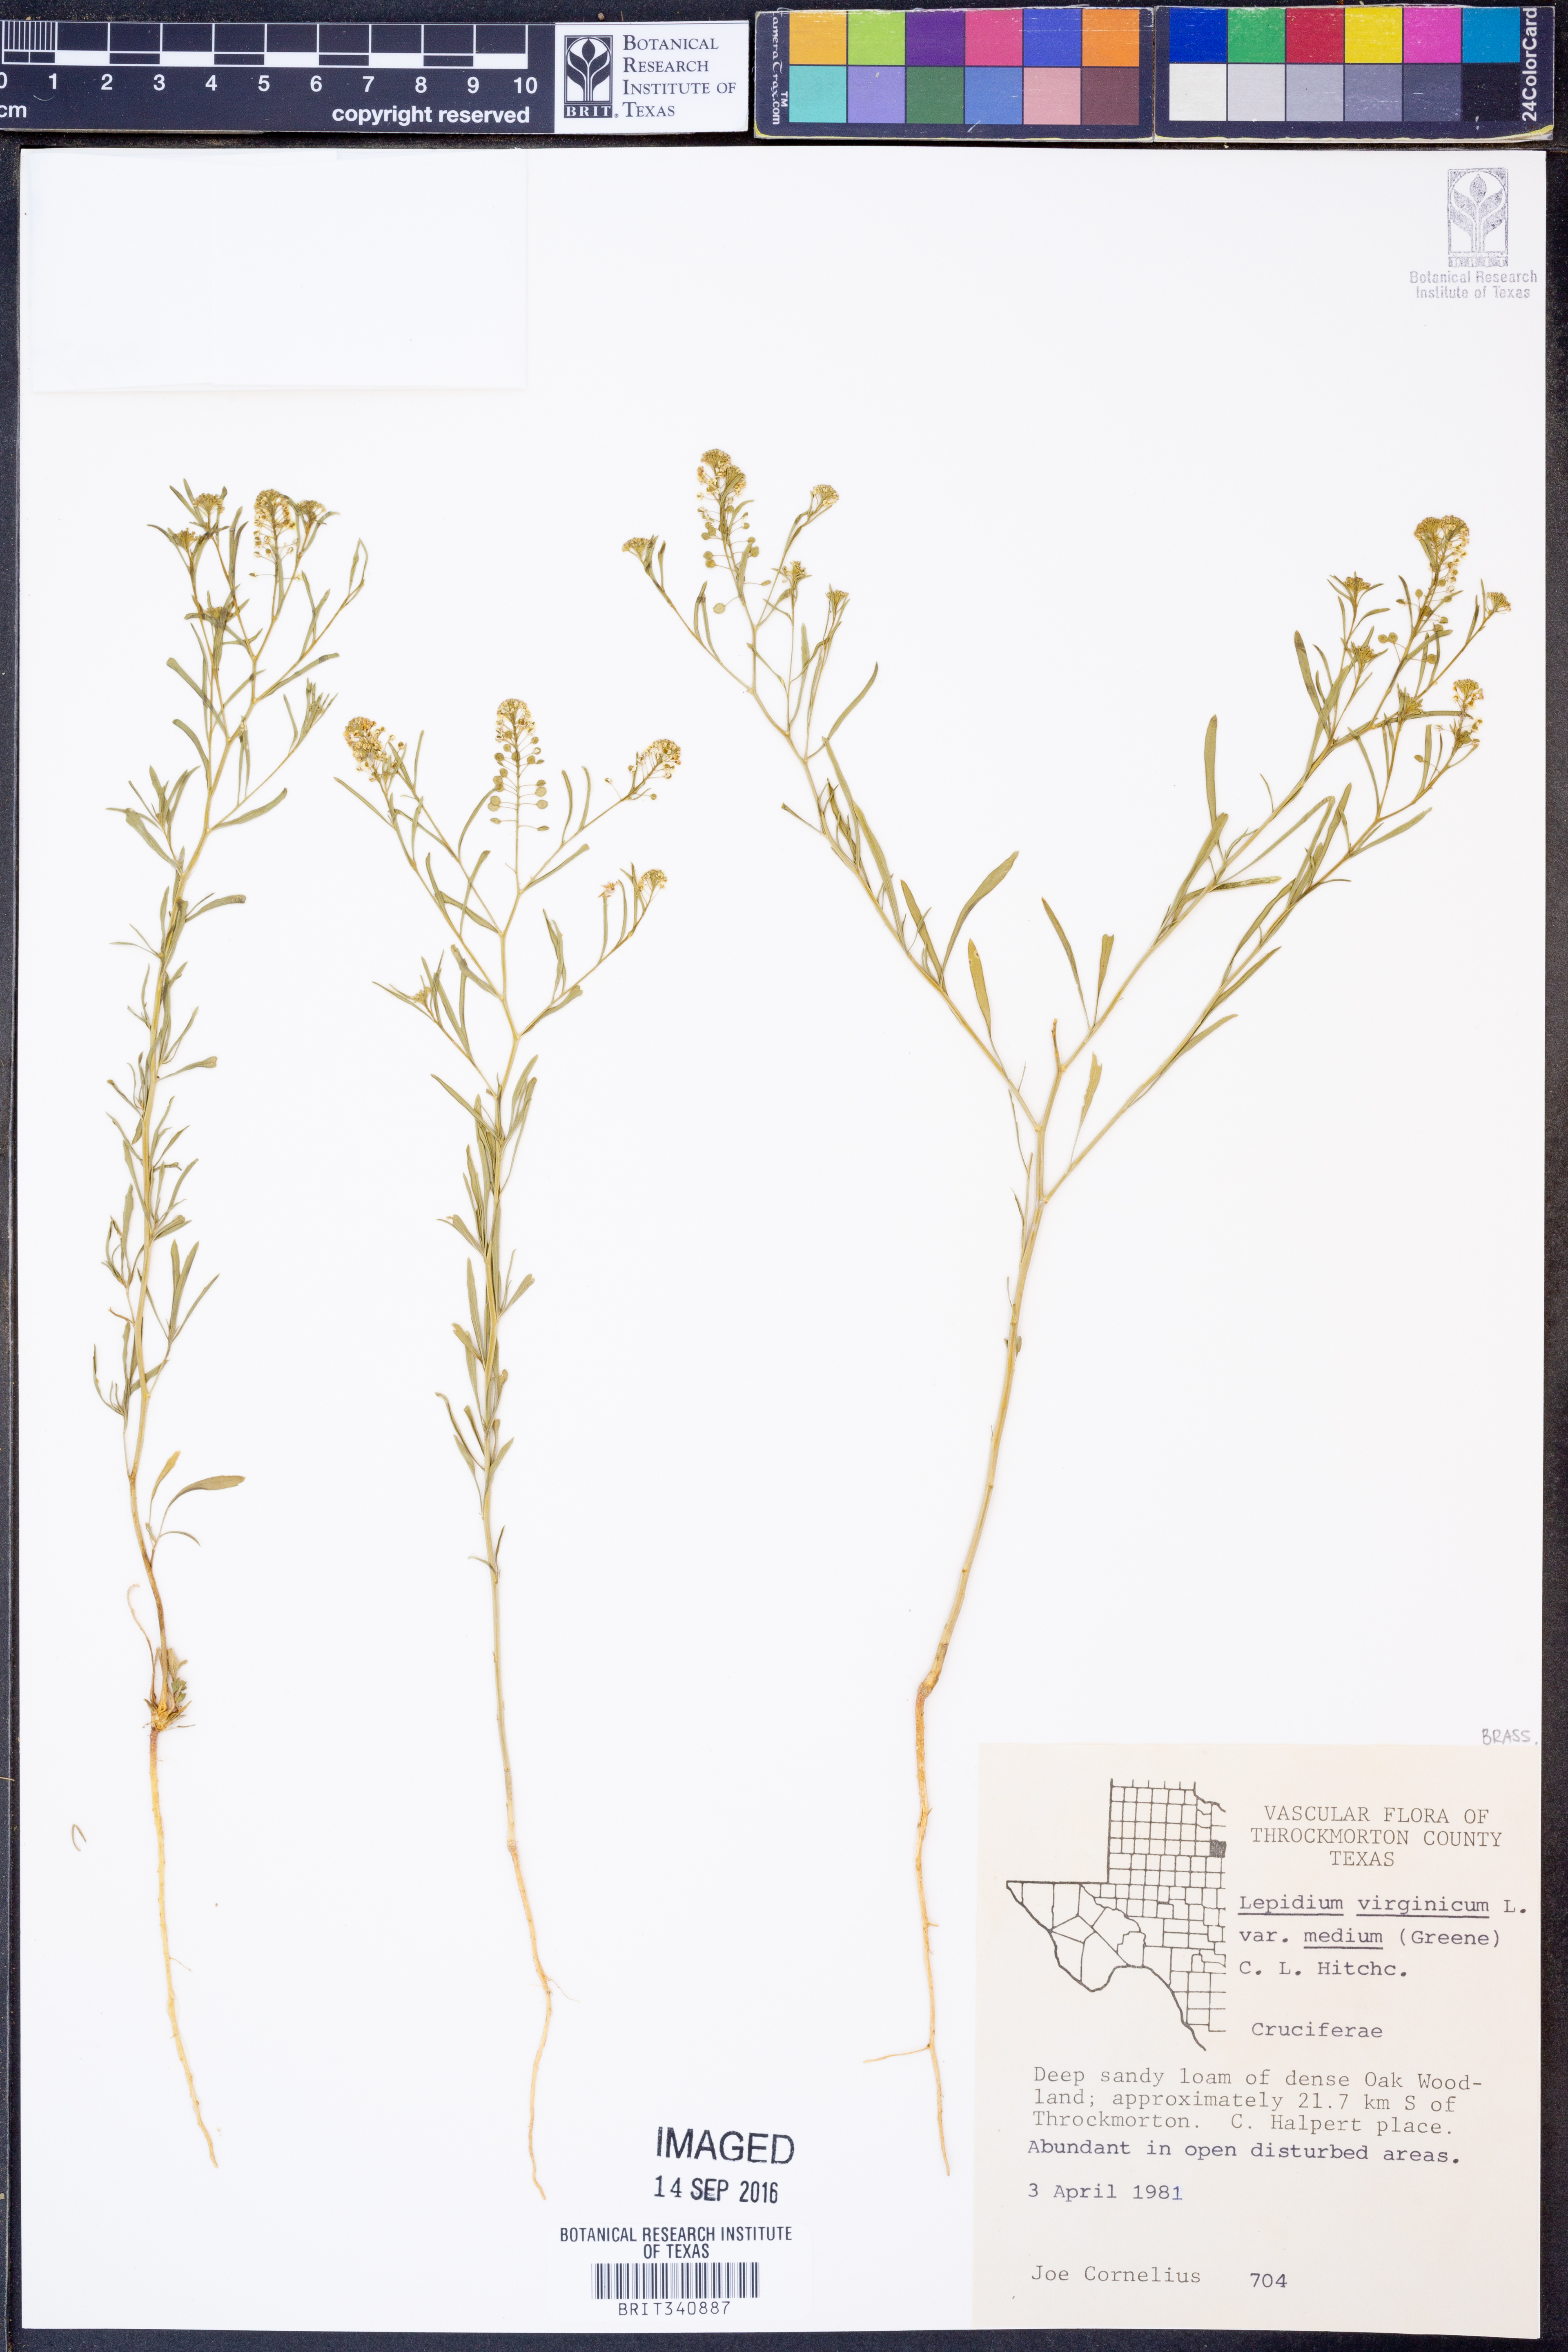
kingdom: Plantae
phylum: Tracheophyta
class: Magnoliopsida
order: Brassicales
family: Brassicaceae
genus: Lepidium
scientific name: Lepidium virginicum
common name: Least pepperwort
